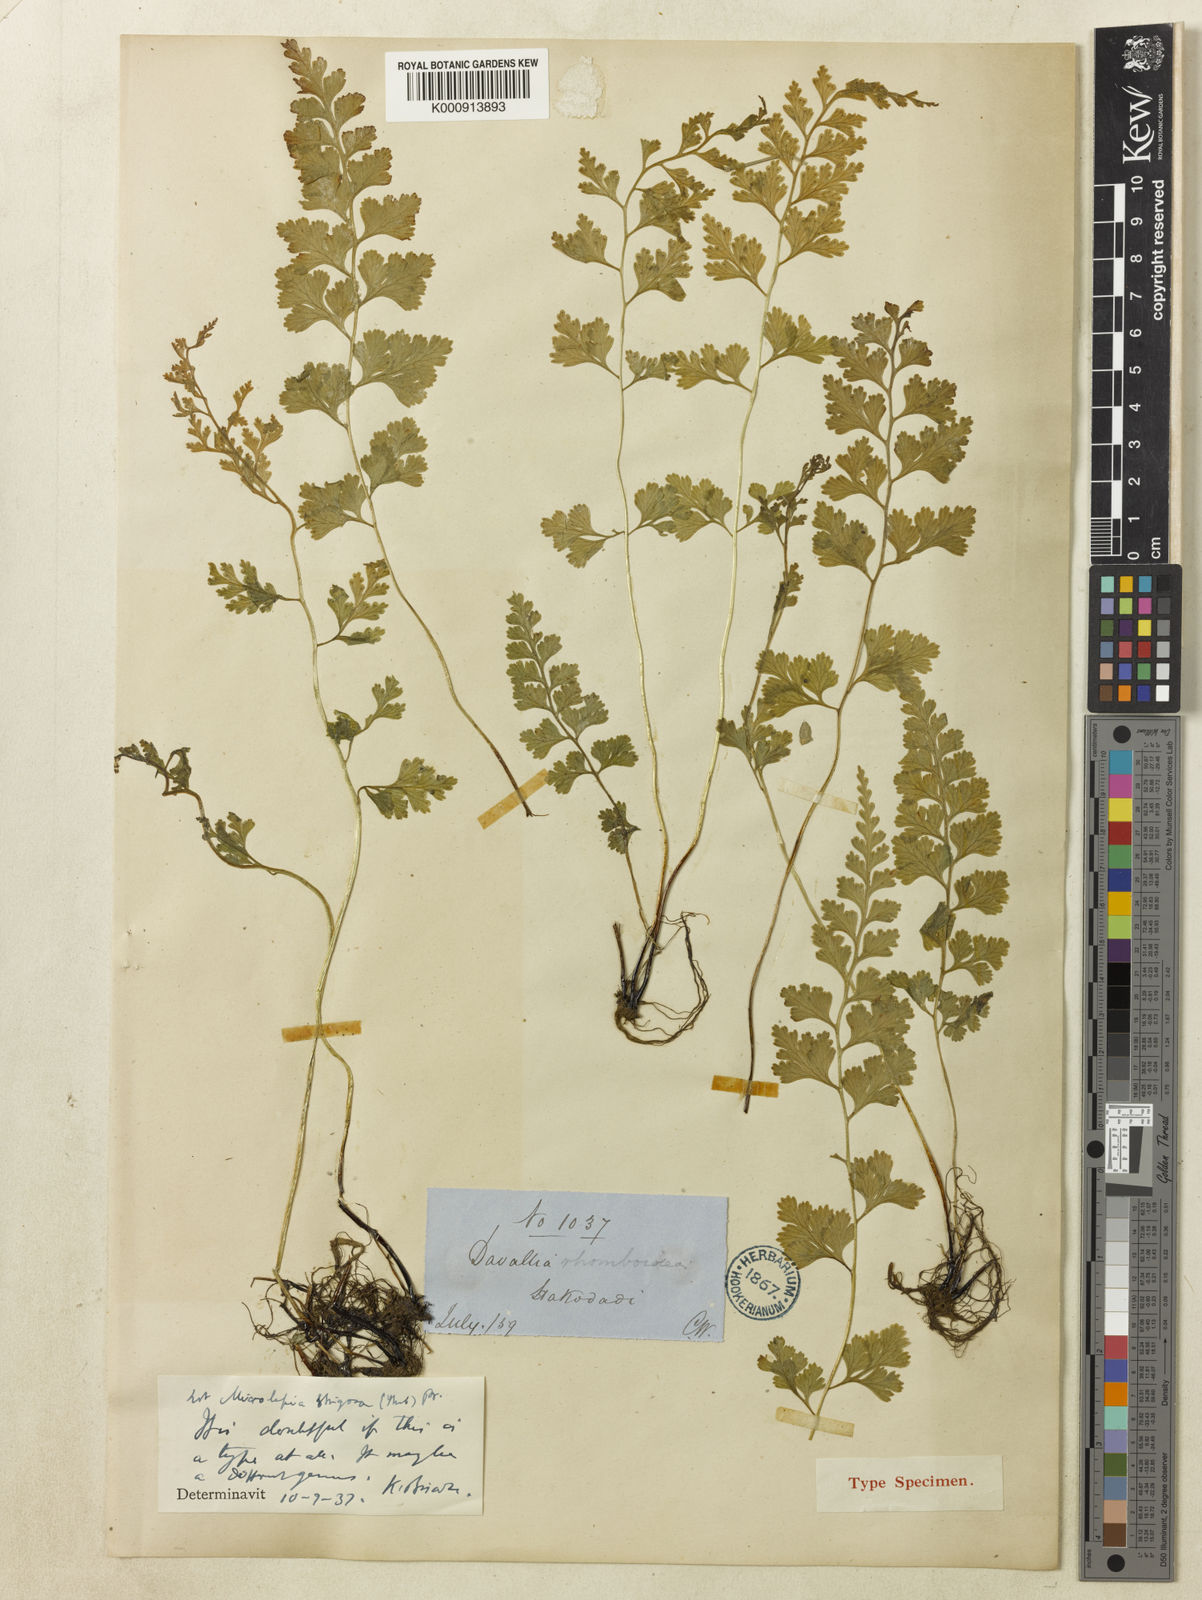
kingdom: Plantae
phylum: Tracheophyta
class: Polypodiopsida
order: Polypodiales
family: Dennstaedtiaceae
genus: Sitobolium
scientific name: Sitobolium wilfordii
